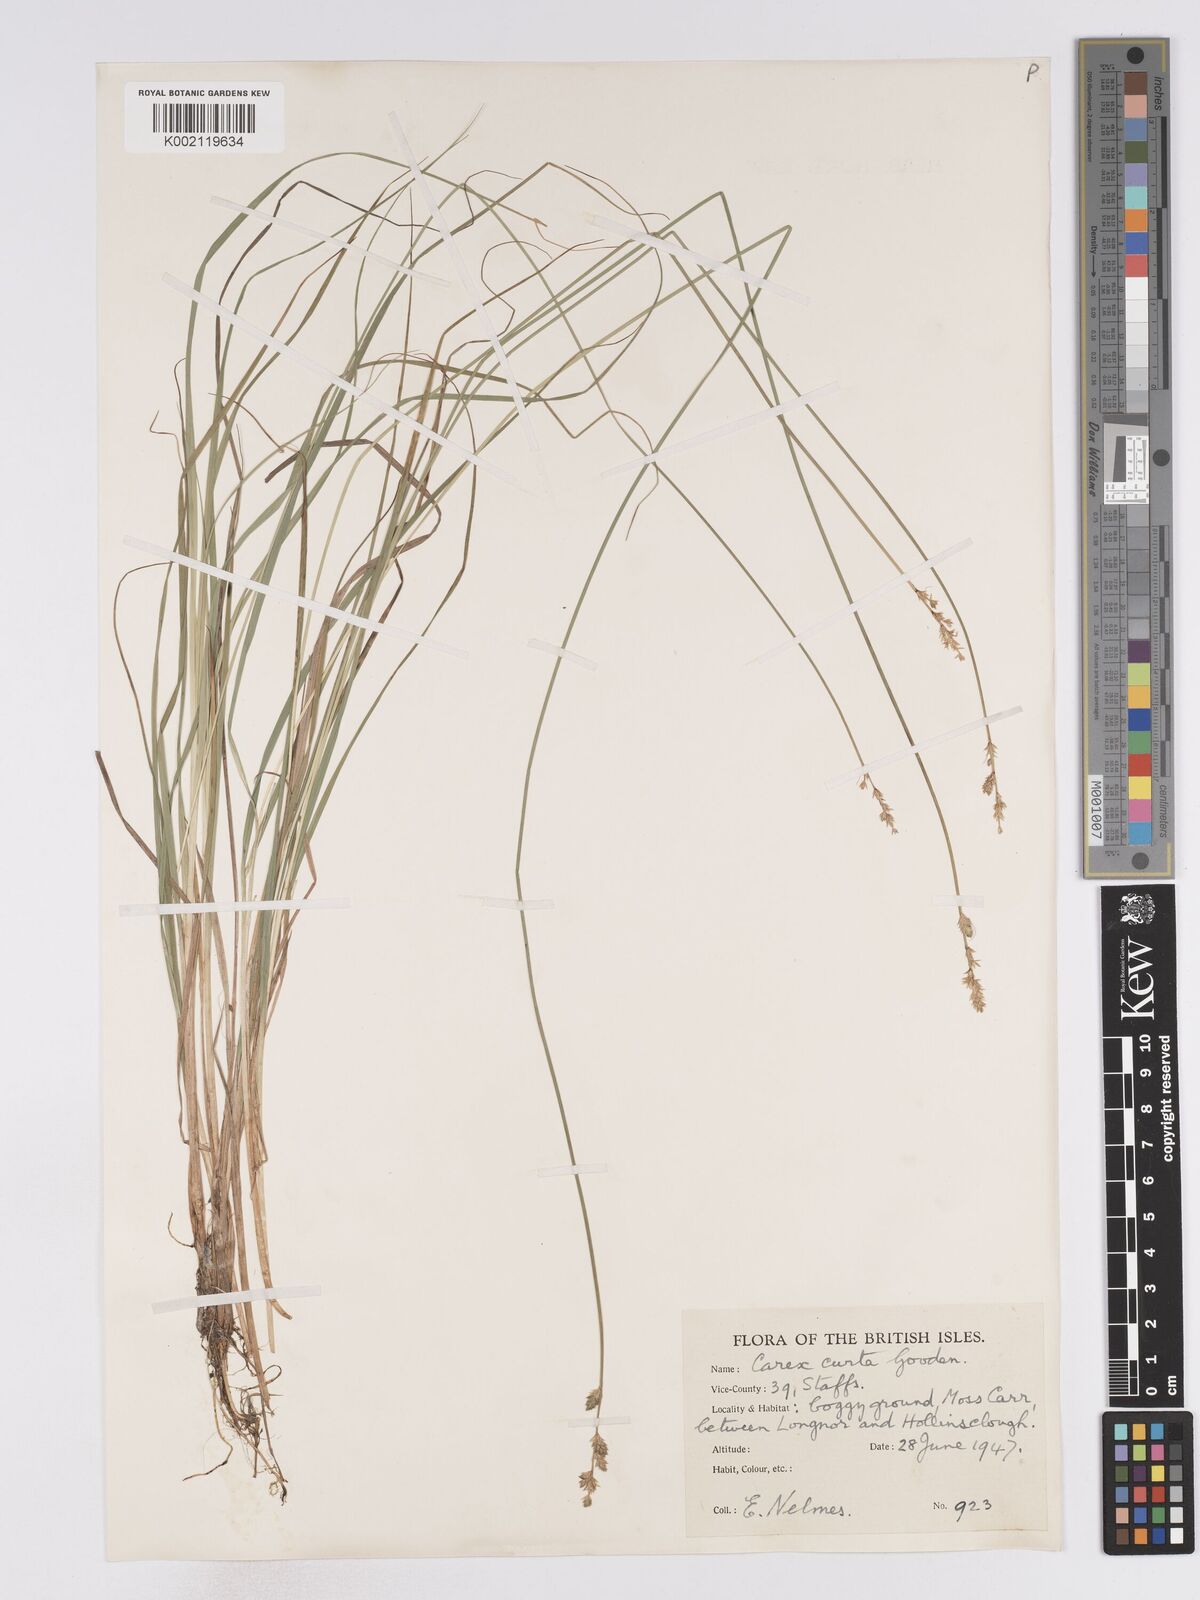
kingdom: Plantae
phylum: Tracheophyta
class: Liliopsida
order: Poales
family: Cyperaceae
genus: Carex
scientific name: Carex curta
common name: White sedge
